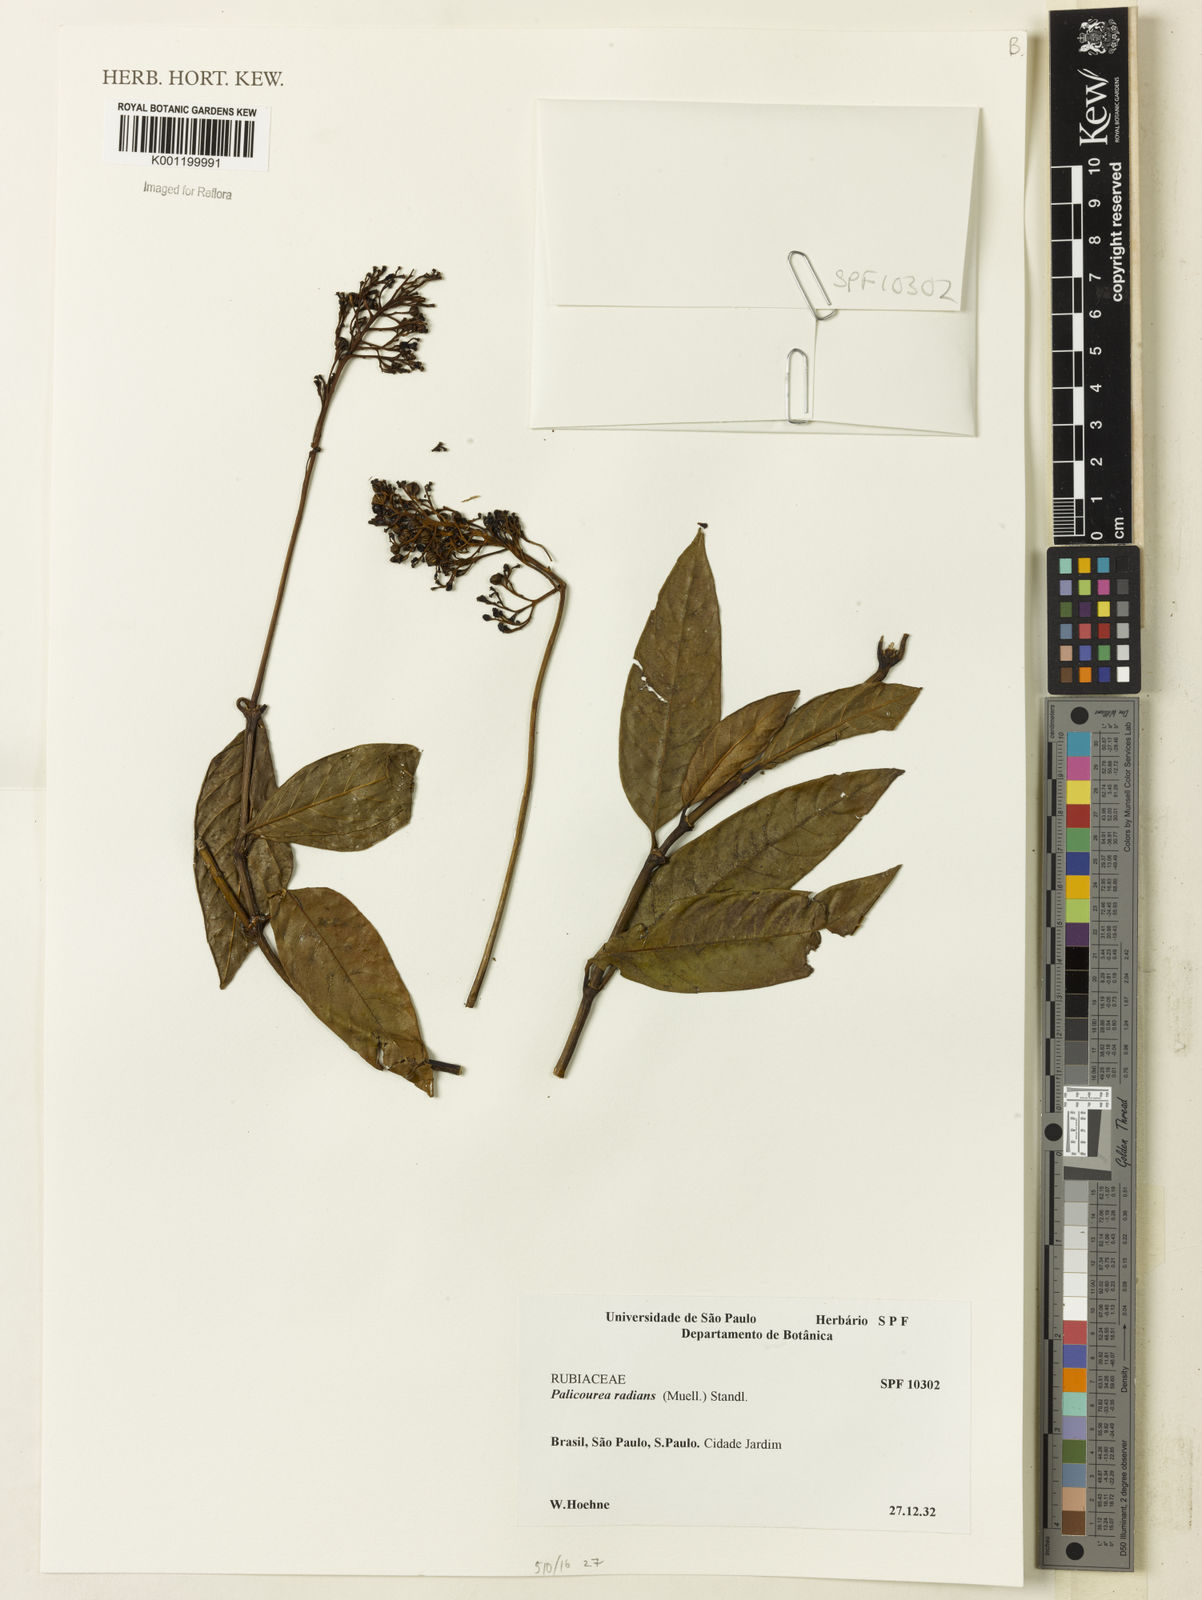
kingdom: Plantae
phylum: Tracheophyta
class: Magnoliopsida
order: Gentianales
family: Rubiaceae
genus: Palicourea
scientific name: Palicourea
